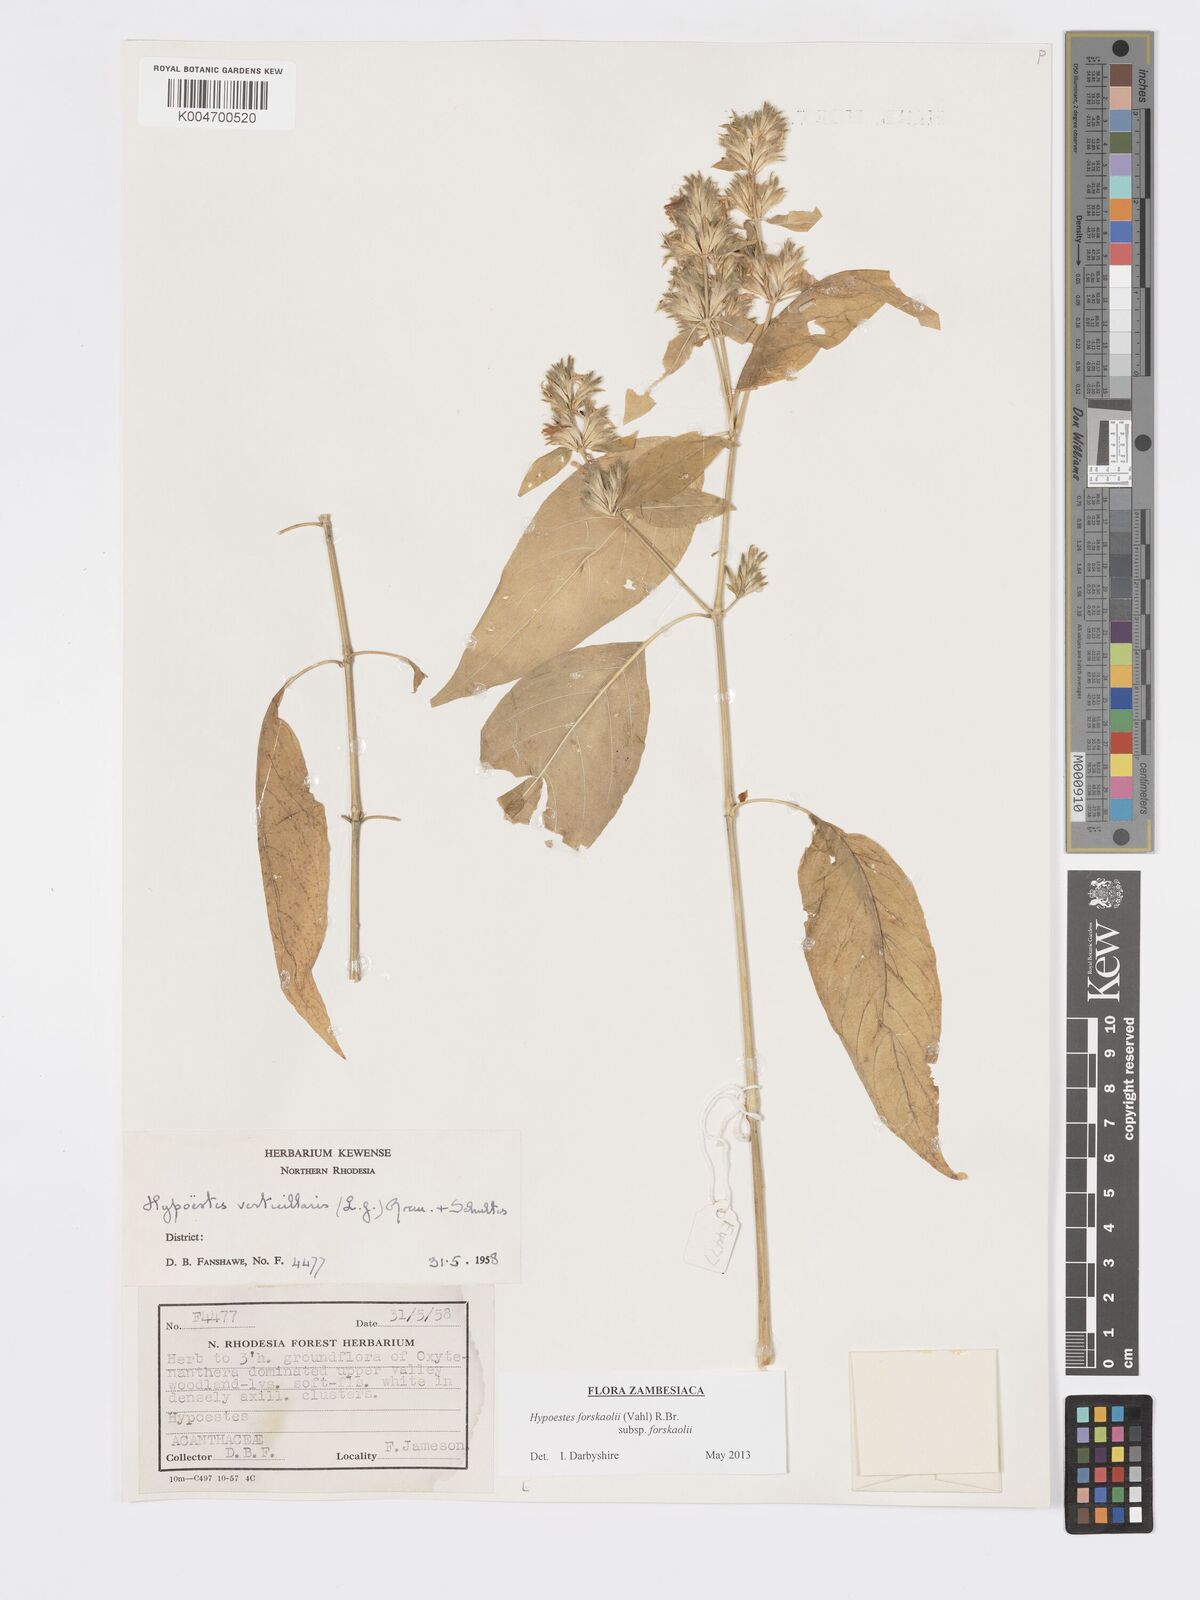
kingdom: Plantae
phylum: Tracheophyta
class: Magnoliopsida
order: Lamiales
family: Acanthaceae
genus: Hypoestes
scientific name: Hypoestes forskaolii
